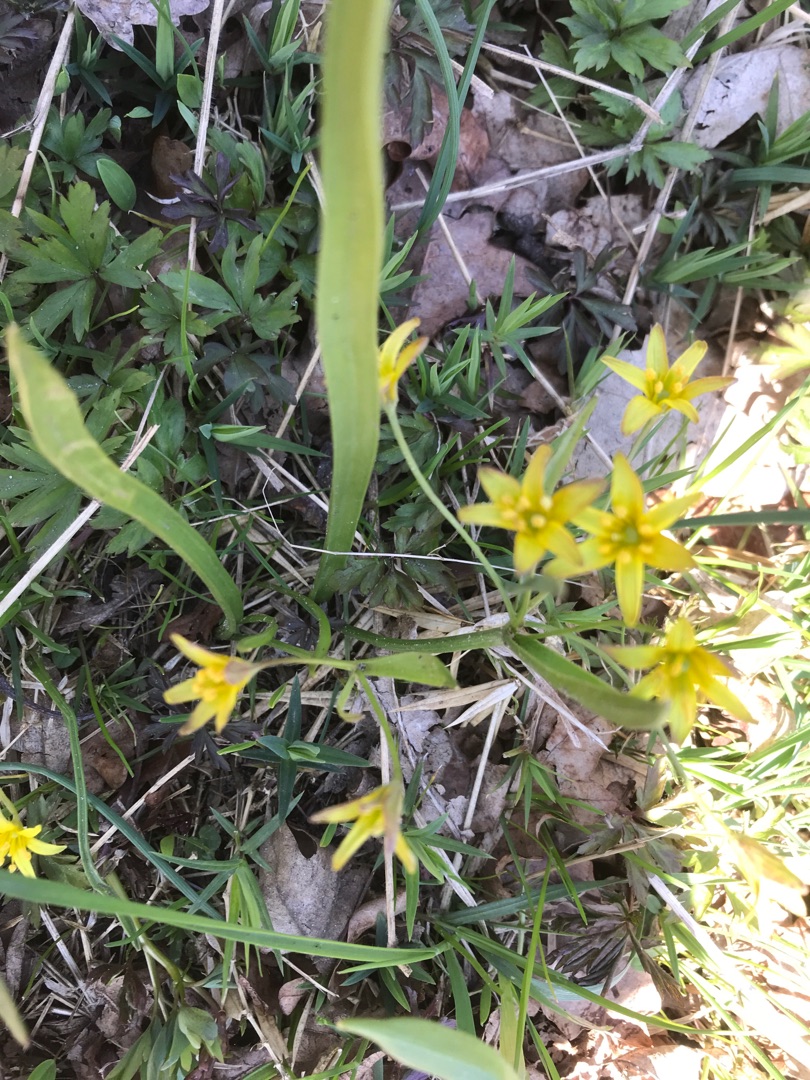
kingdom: Plantae
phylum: Tracheophyta
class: Liliopsida
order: Liliales
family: Liliaceae
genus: Gagea
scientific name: Gagea lutea
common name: Almindelig guldstjerne
